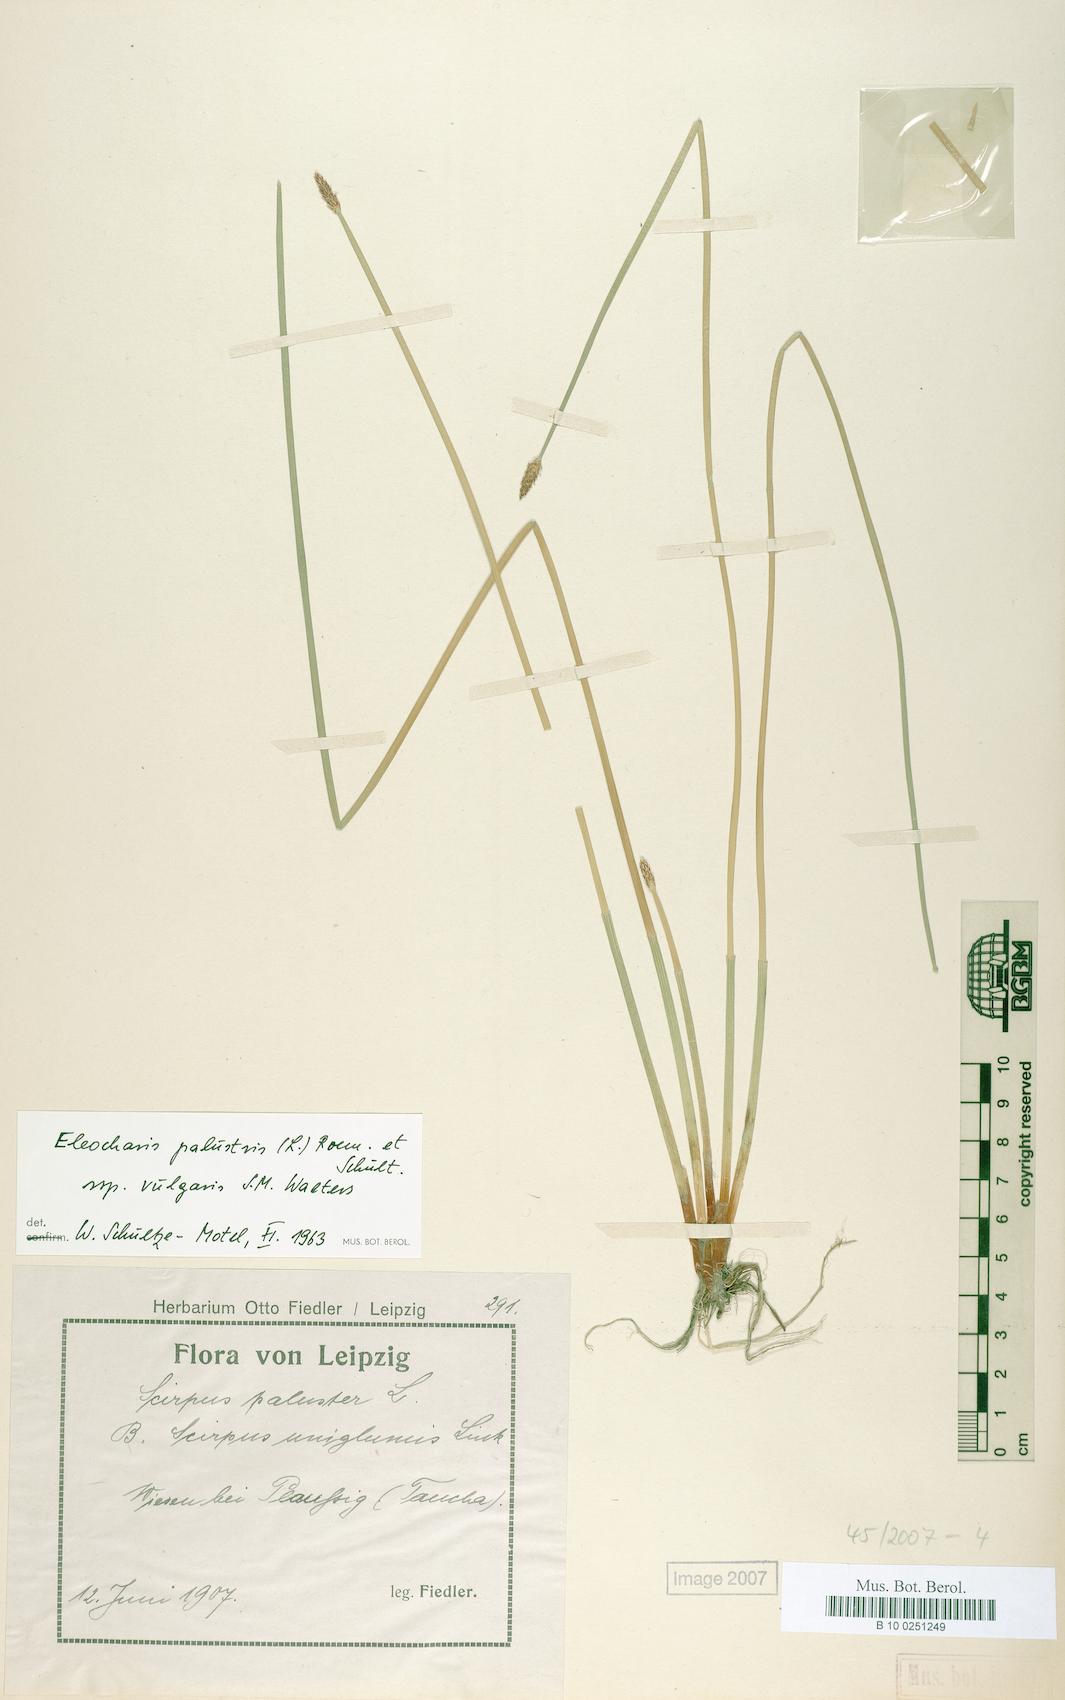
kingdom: Plantae
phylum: Tracheophyta
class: Liliopsida
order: Poales
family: Cyperaceae
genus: Eleocharis
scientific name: Eleocharis palustris
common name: Common spike-rush
